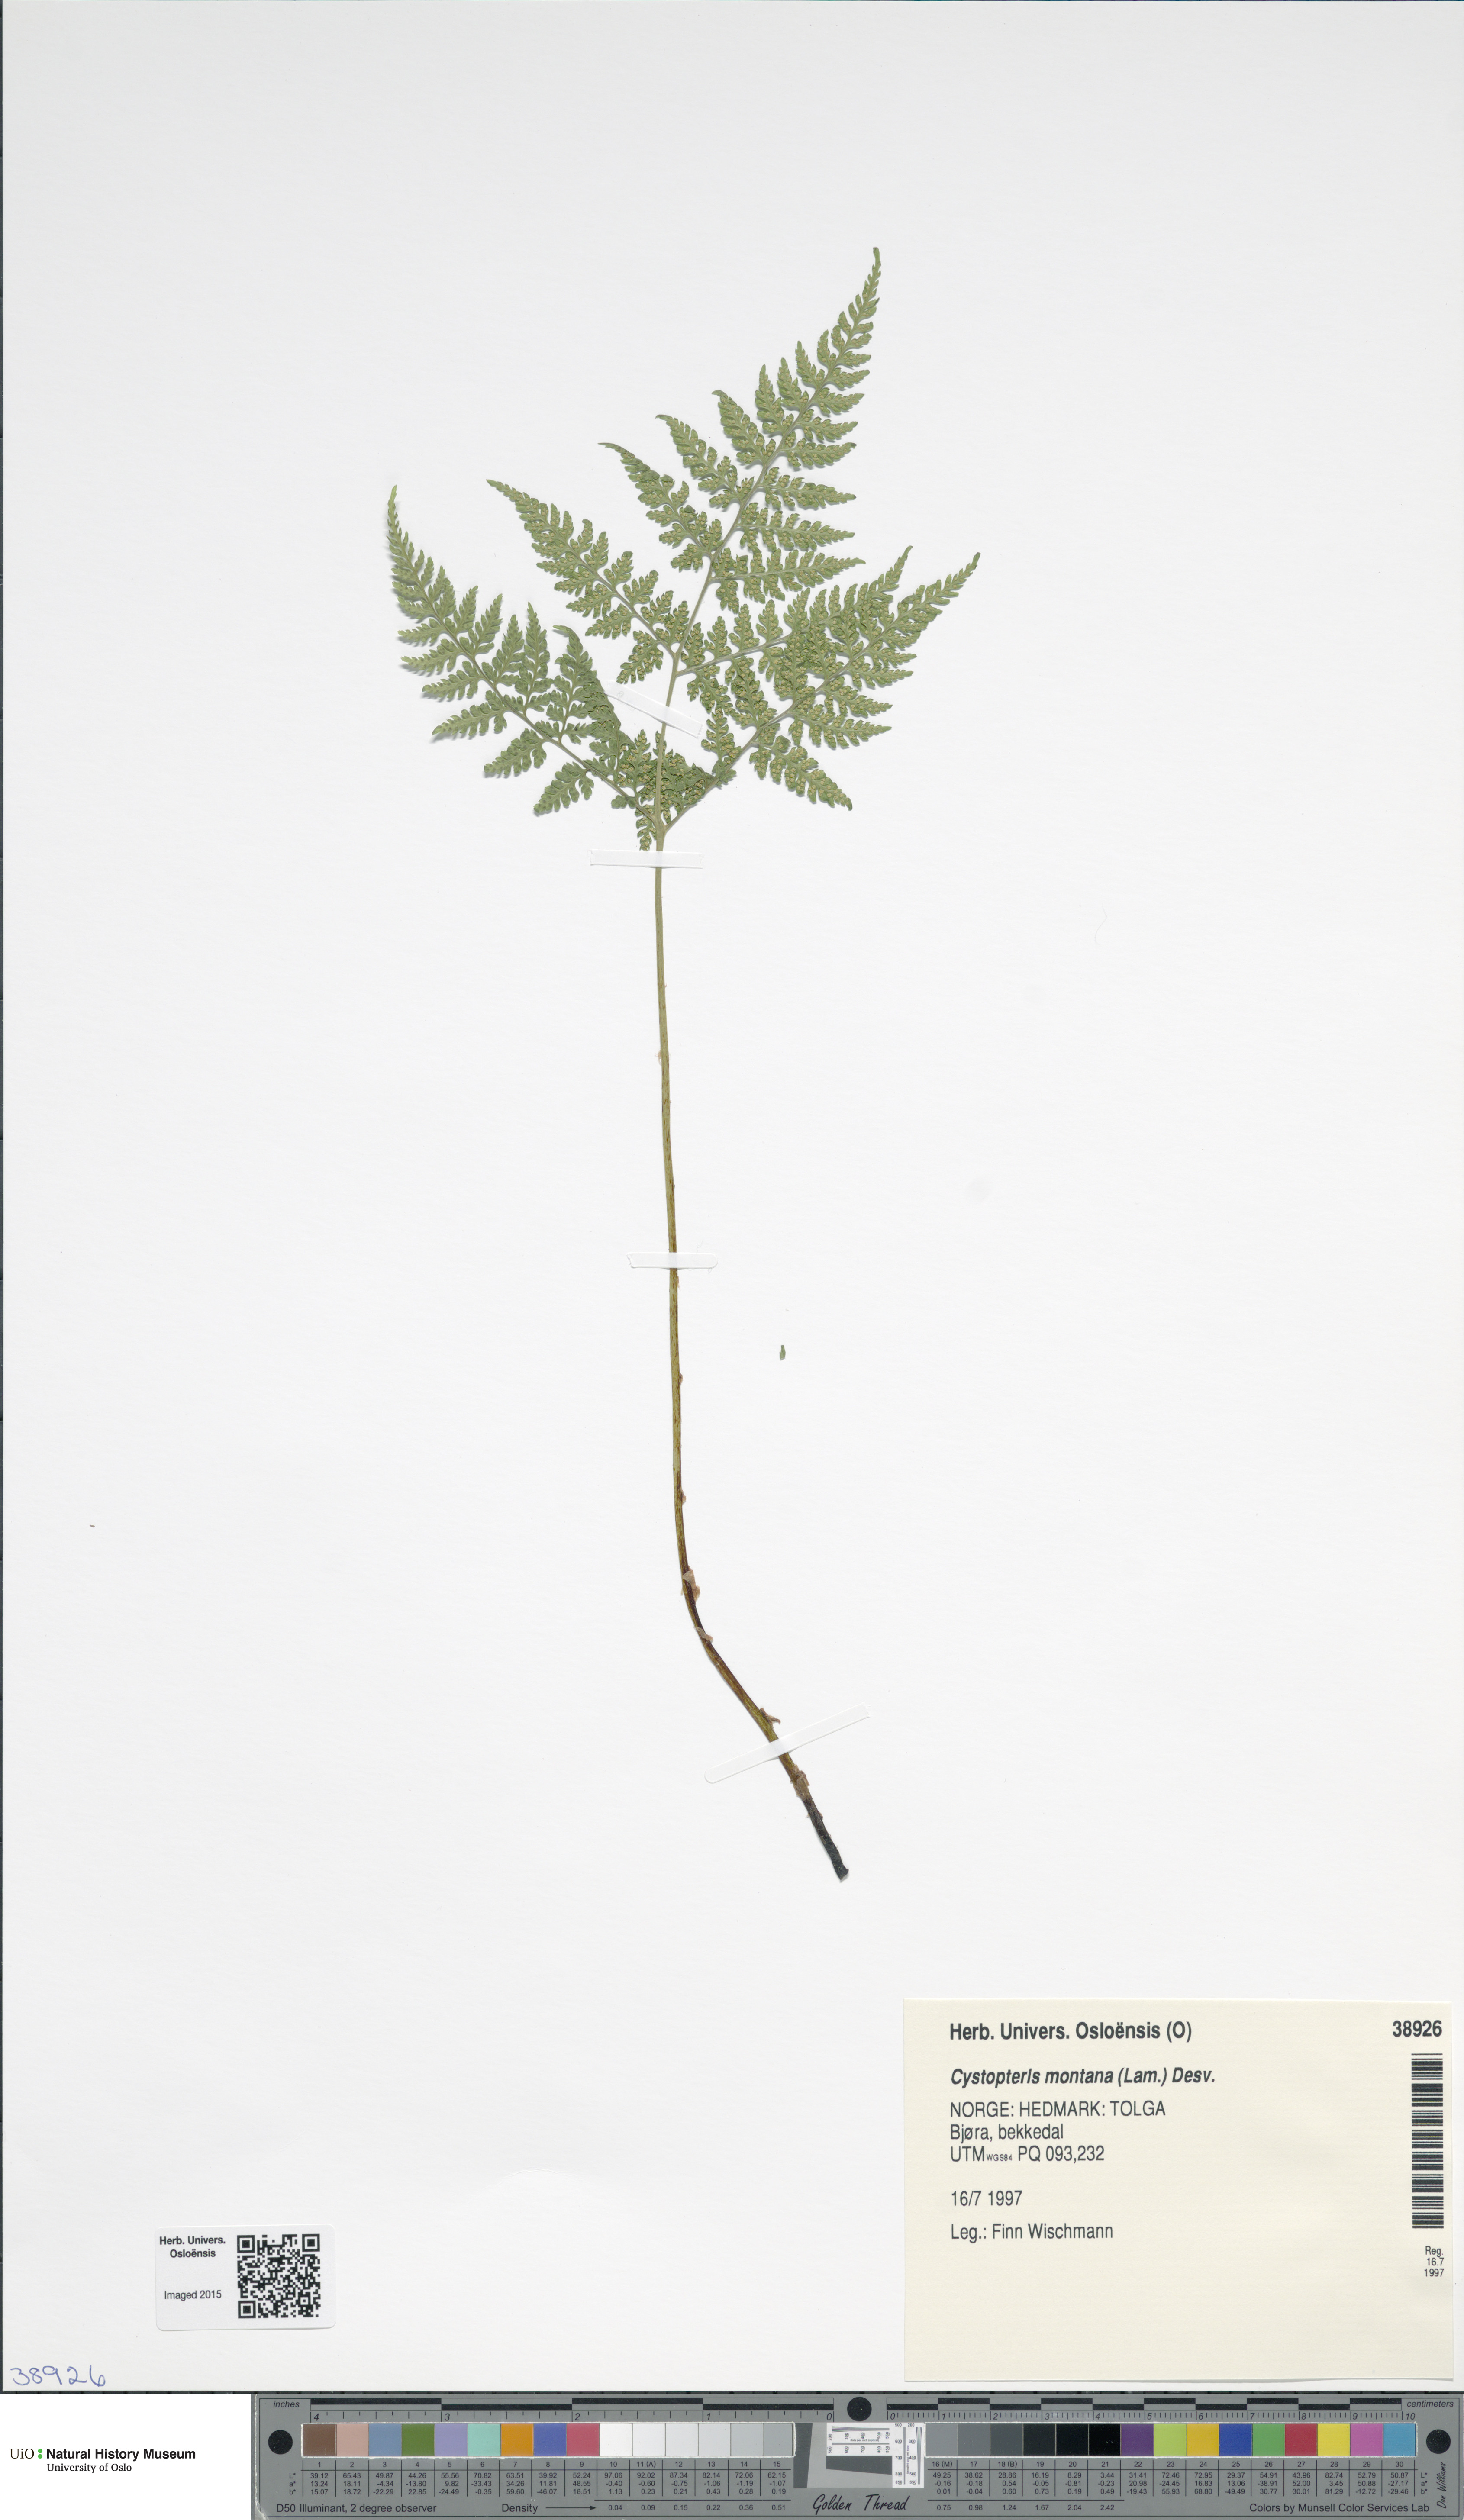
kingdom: Plantae
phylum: Tracheophyta
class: Polypodiopsida
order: Polypodiales
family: Cystopteridaceae
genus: Cystopteris
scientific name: Cystopteris montana
